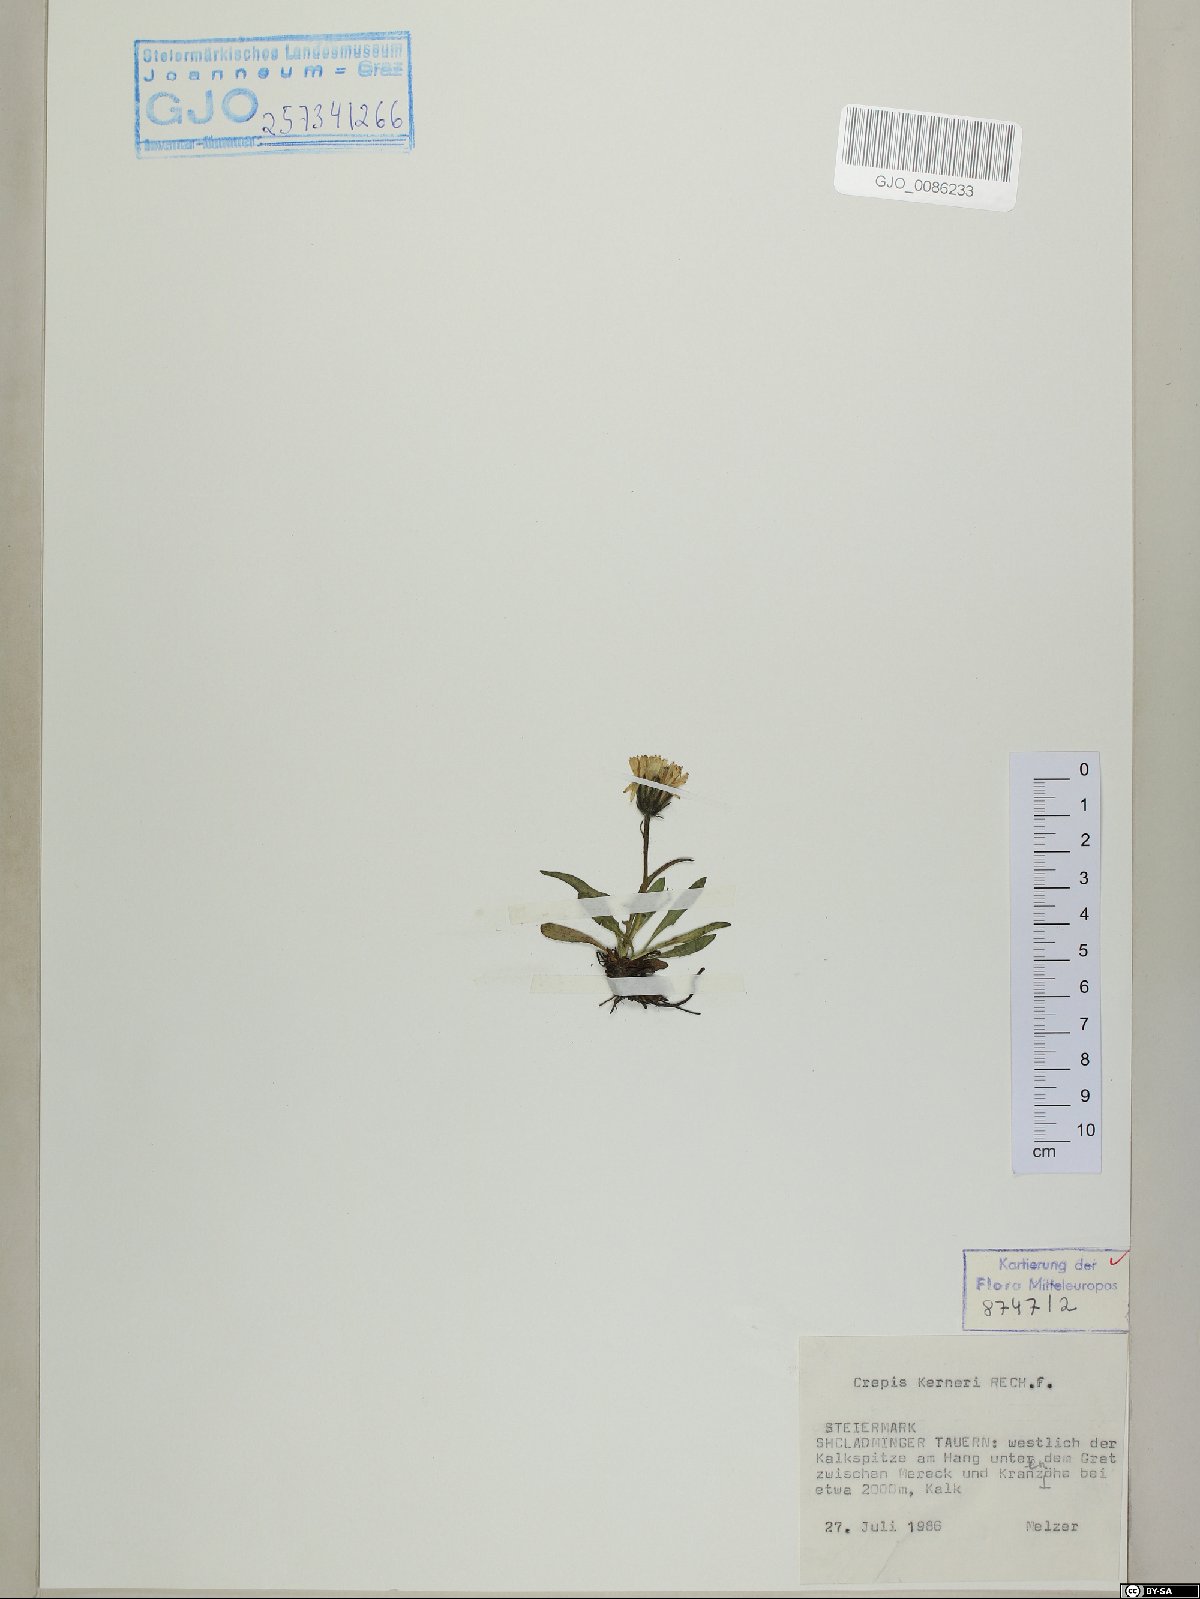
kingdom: Plantae
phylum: Tracheophyta
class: Magnoliopsida
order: Asterales
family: Asteraceae
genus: Crepis
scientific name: Crepis jacquinii
